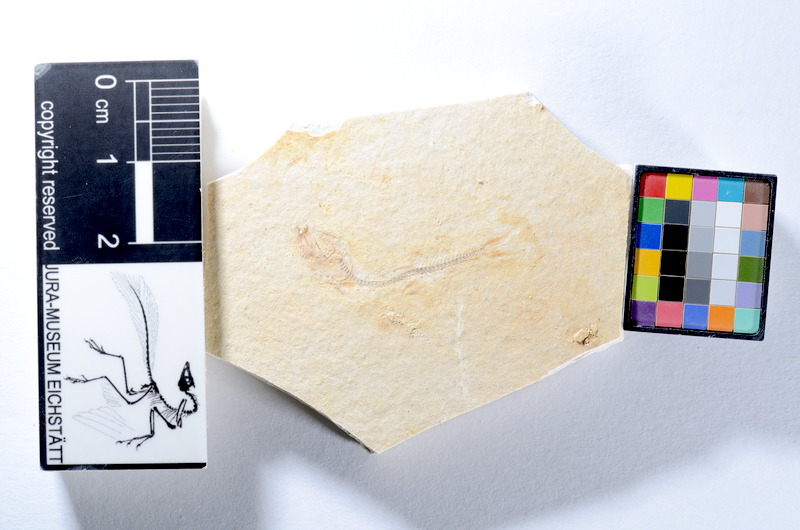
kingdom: Animalia
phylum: Chordata
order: Salmoniformes
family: Orthogonikleithridae
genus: Orthogonikleithrus
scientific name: Orthogonikleithrus hoelli
